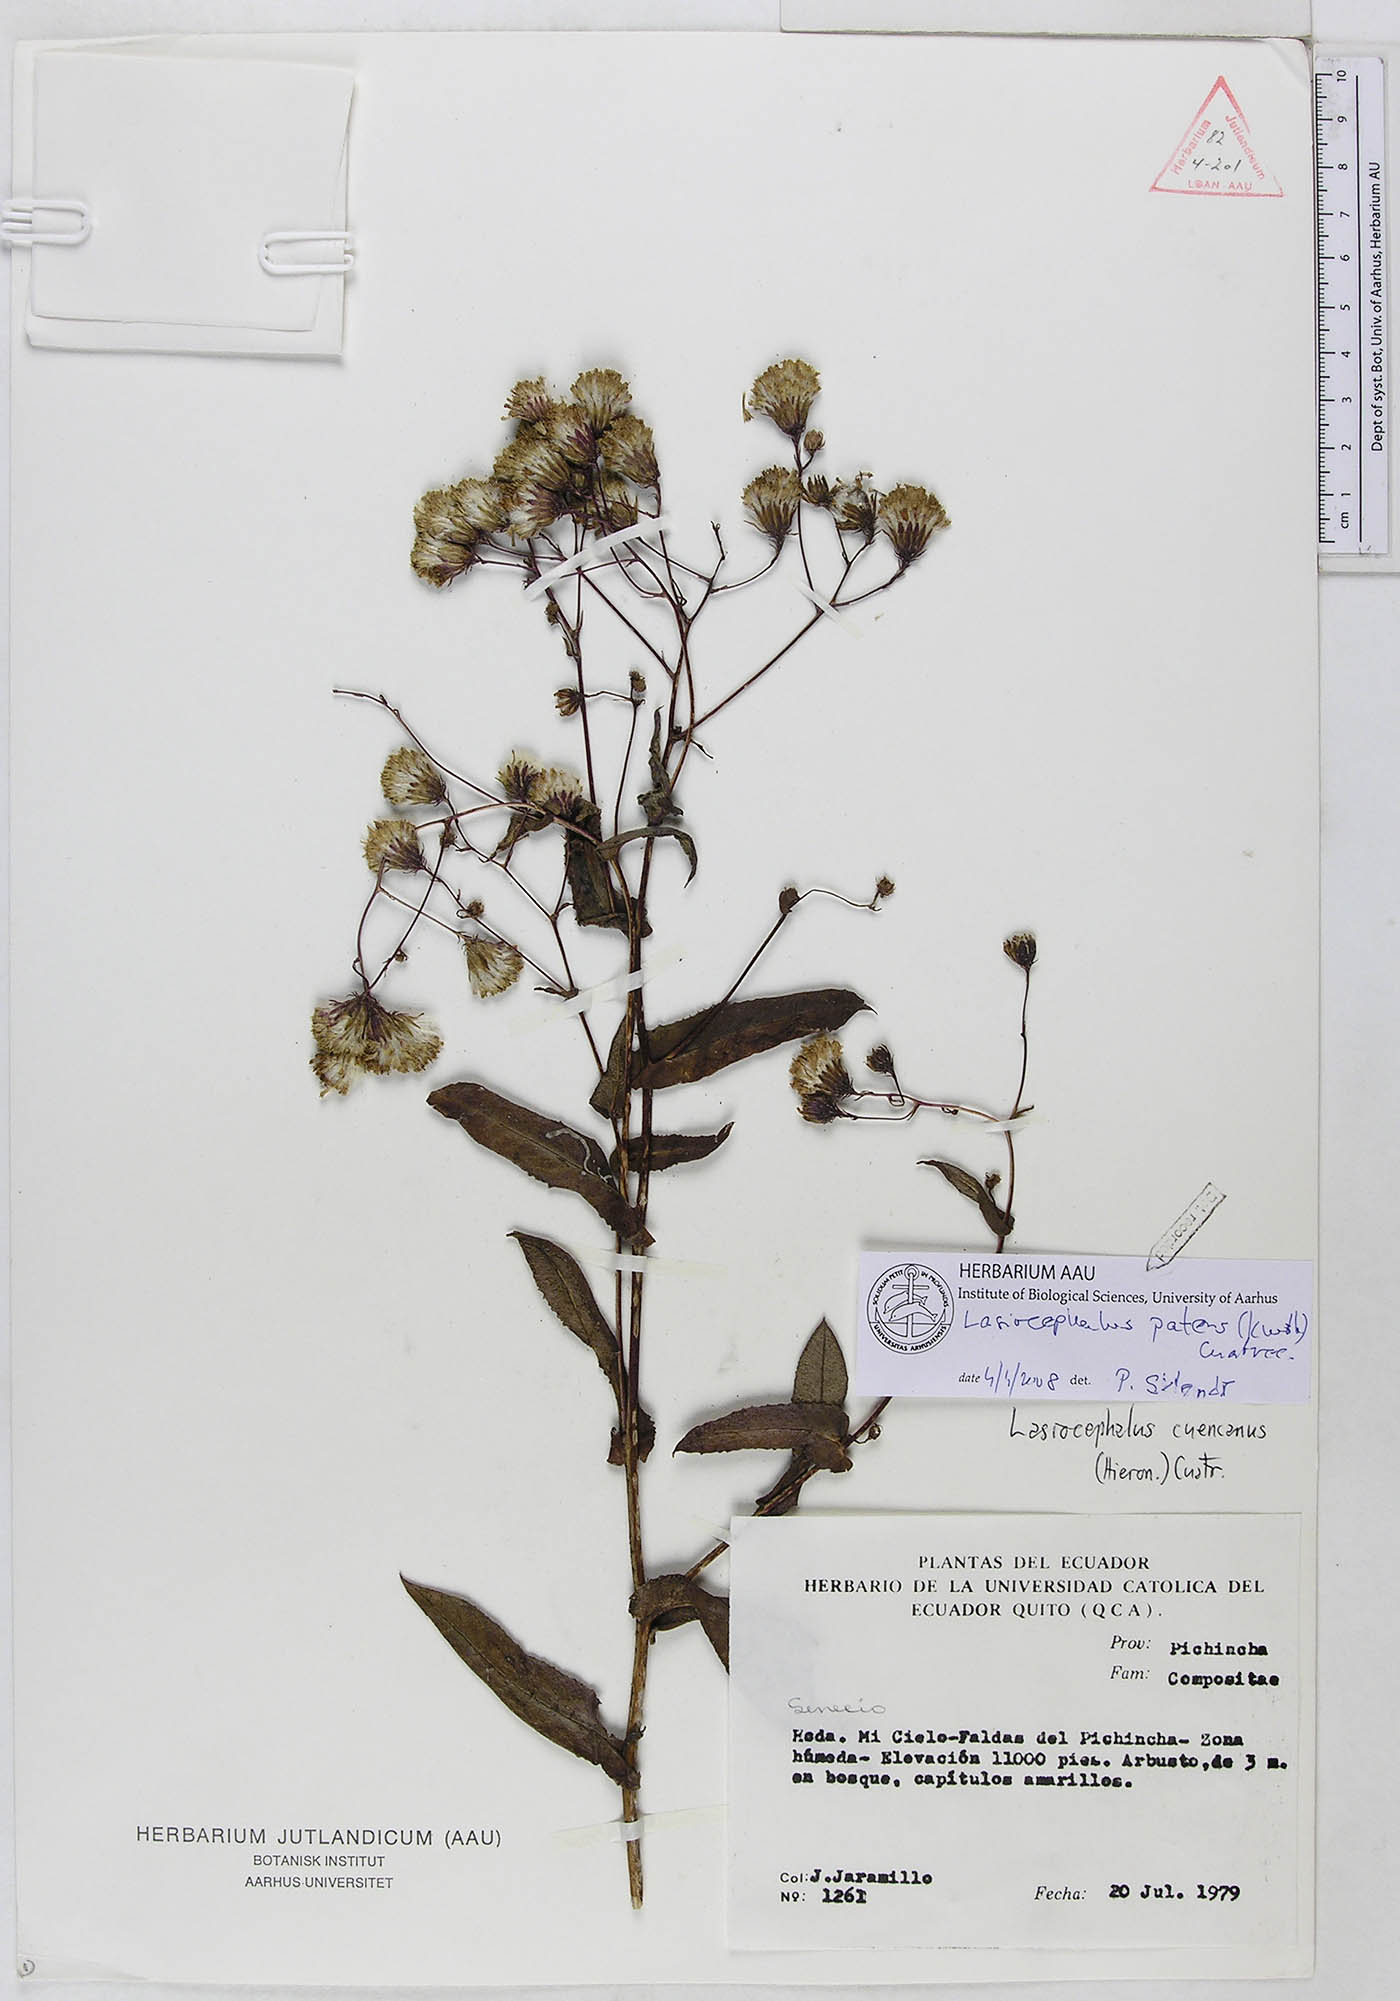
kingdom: Plantae
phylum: Tracheophyta
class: Magnoliopsida
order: Asterales
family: Asteraceae
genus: Aetheolaena
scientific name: Aetheolaena patens
